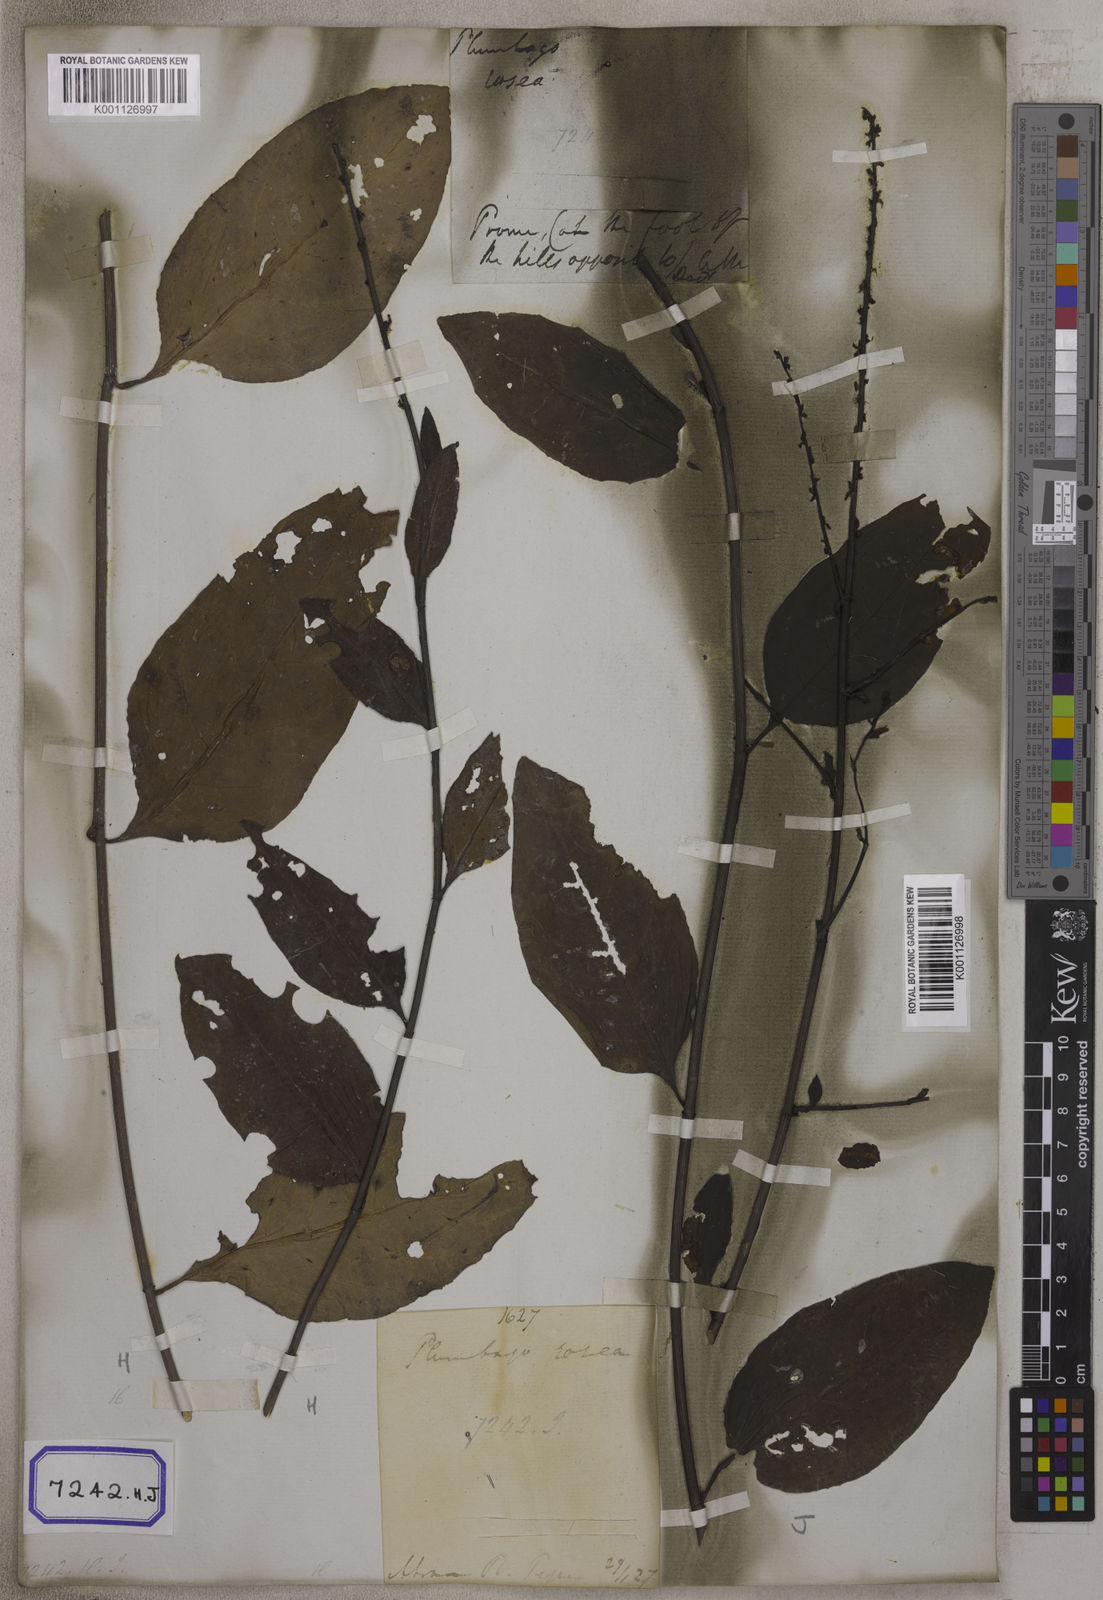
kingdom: Plantae
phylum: Tracheophyta
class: Magnoliopsida
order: Caryophyllales
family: Plumbaginaceae
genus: Plumbago
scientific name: Plumbago indica
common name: Indian leadwort
